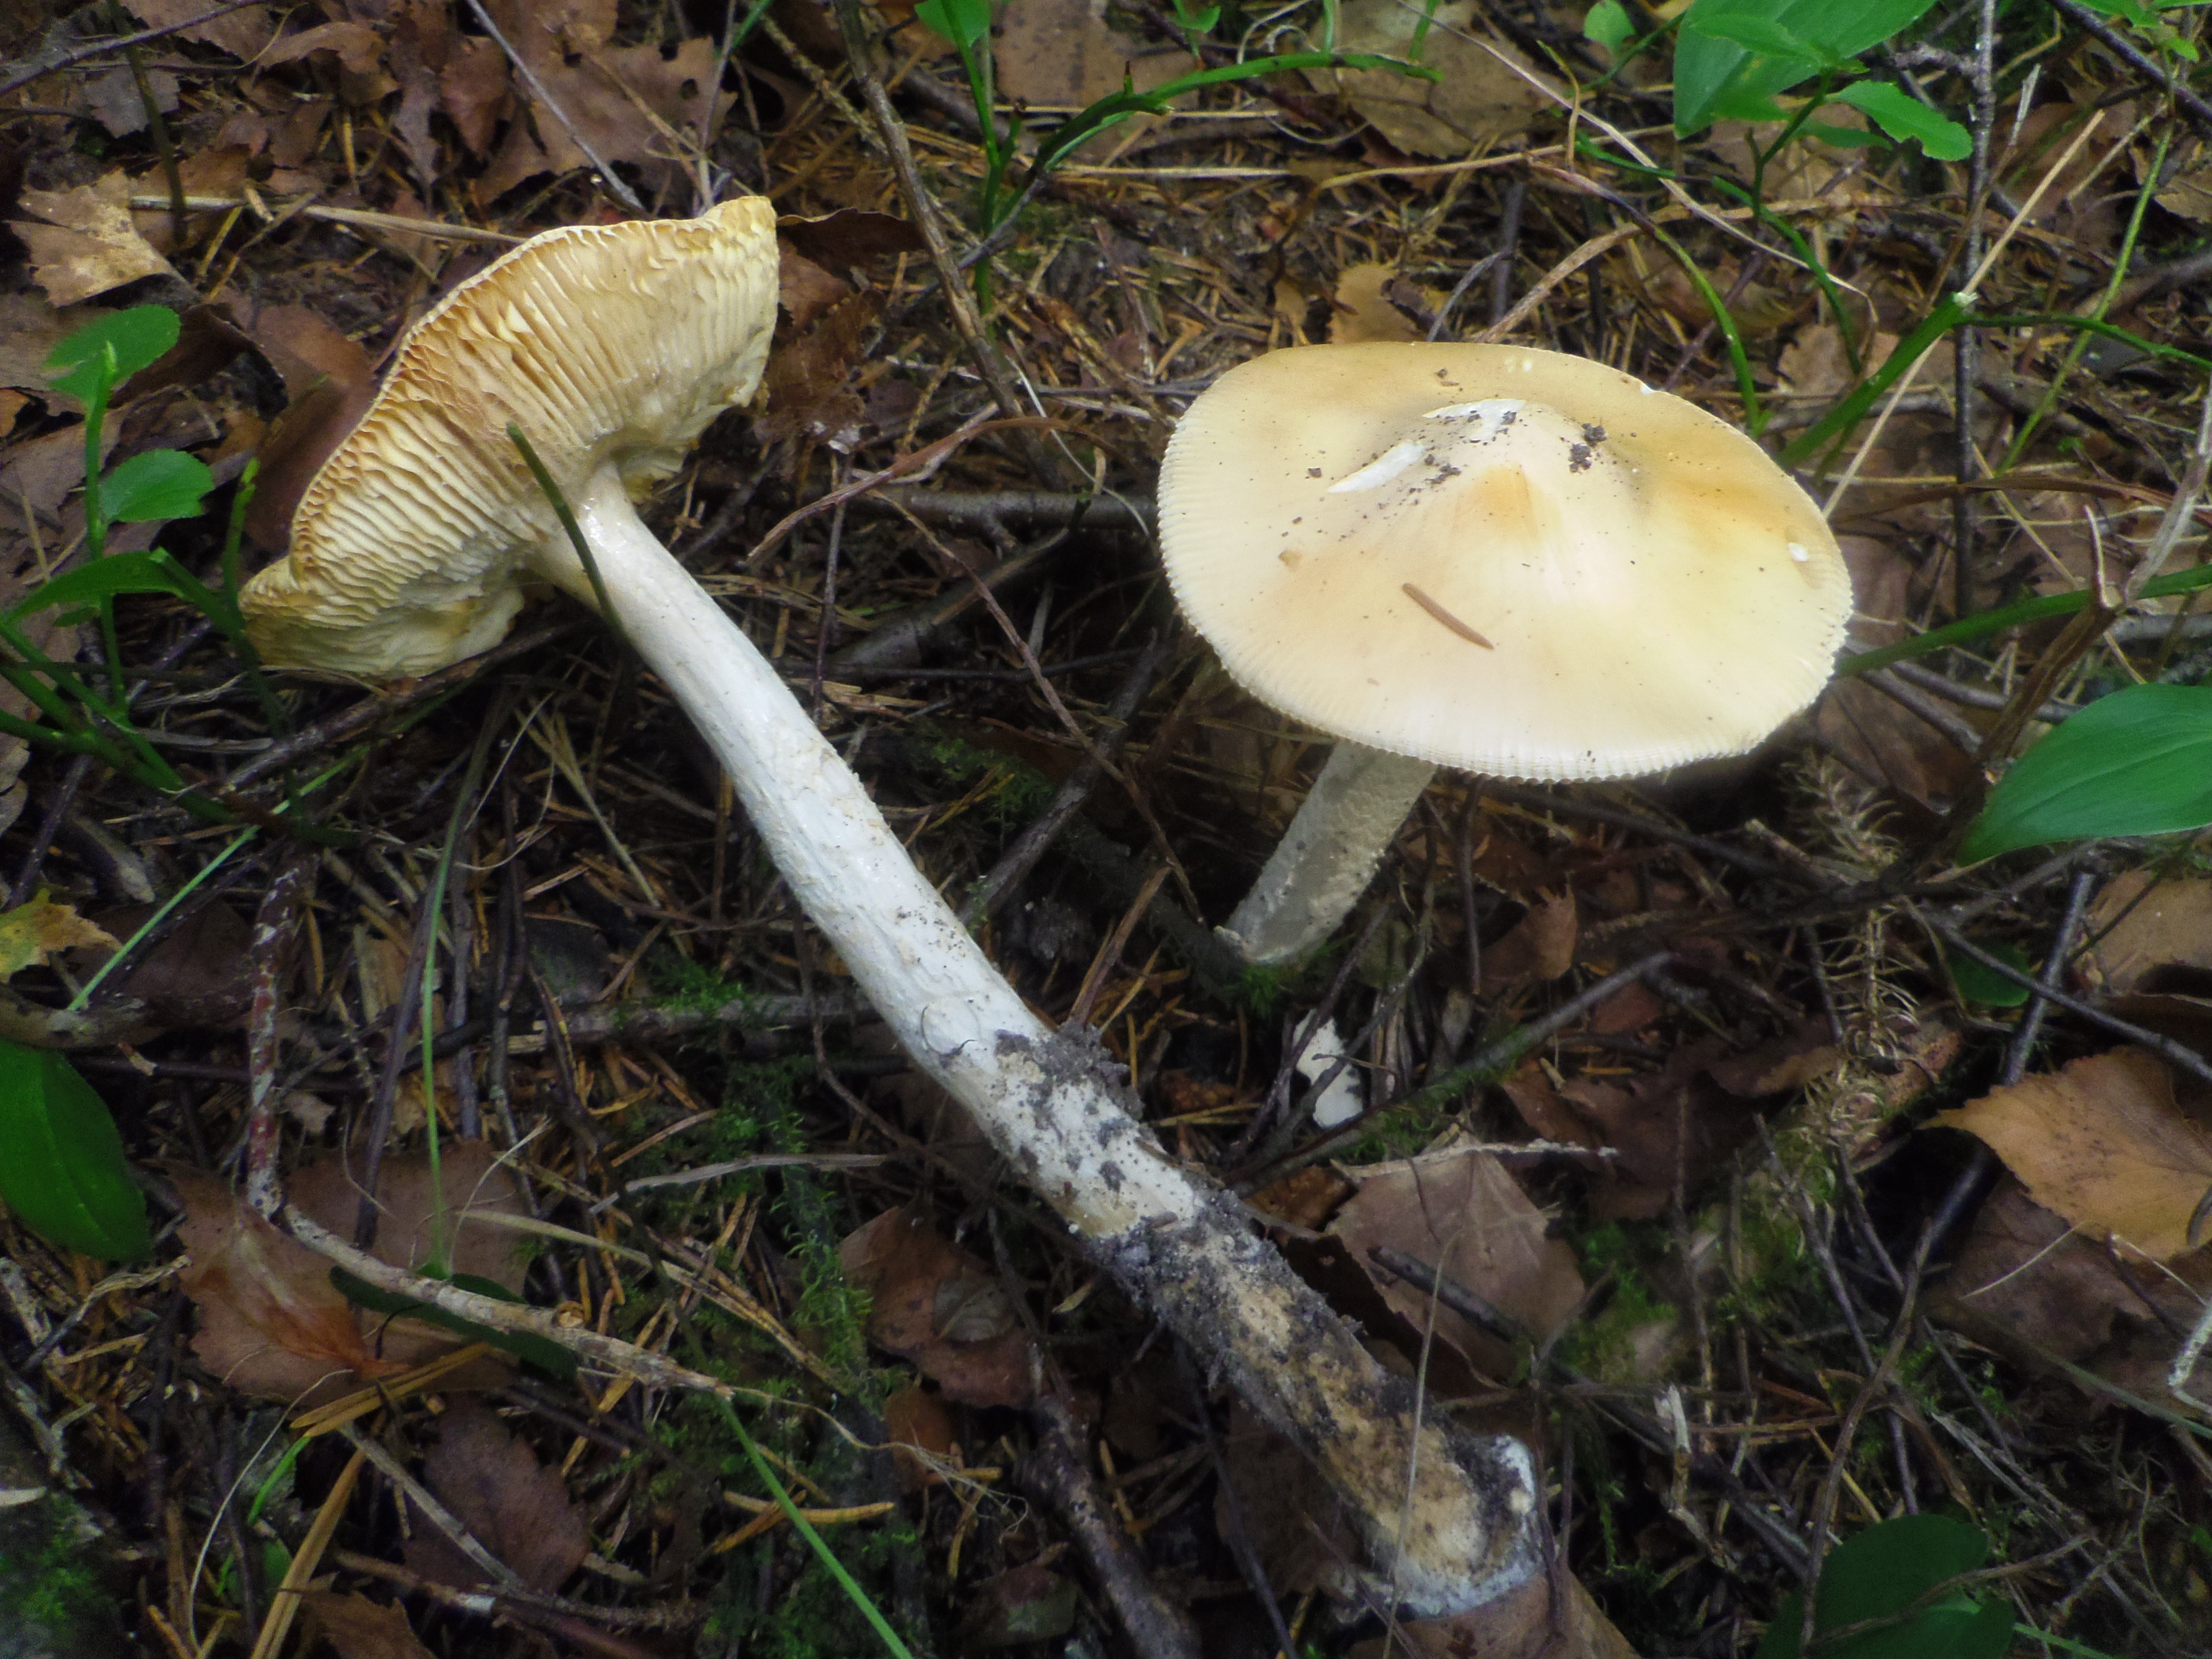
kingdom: Fungi
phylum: Basidiomycota
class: Agaricomycetes
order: Agaricales
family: Amanitaceae
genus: Amanita
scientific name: Amanita contui
